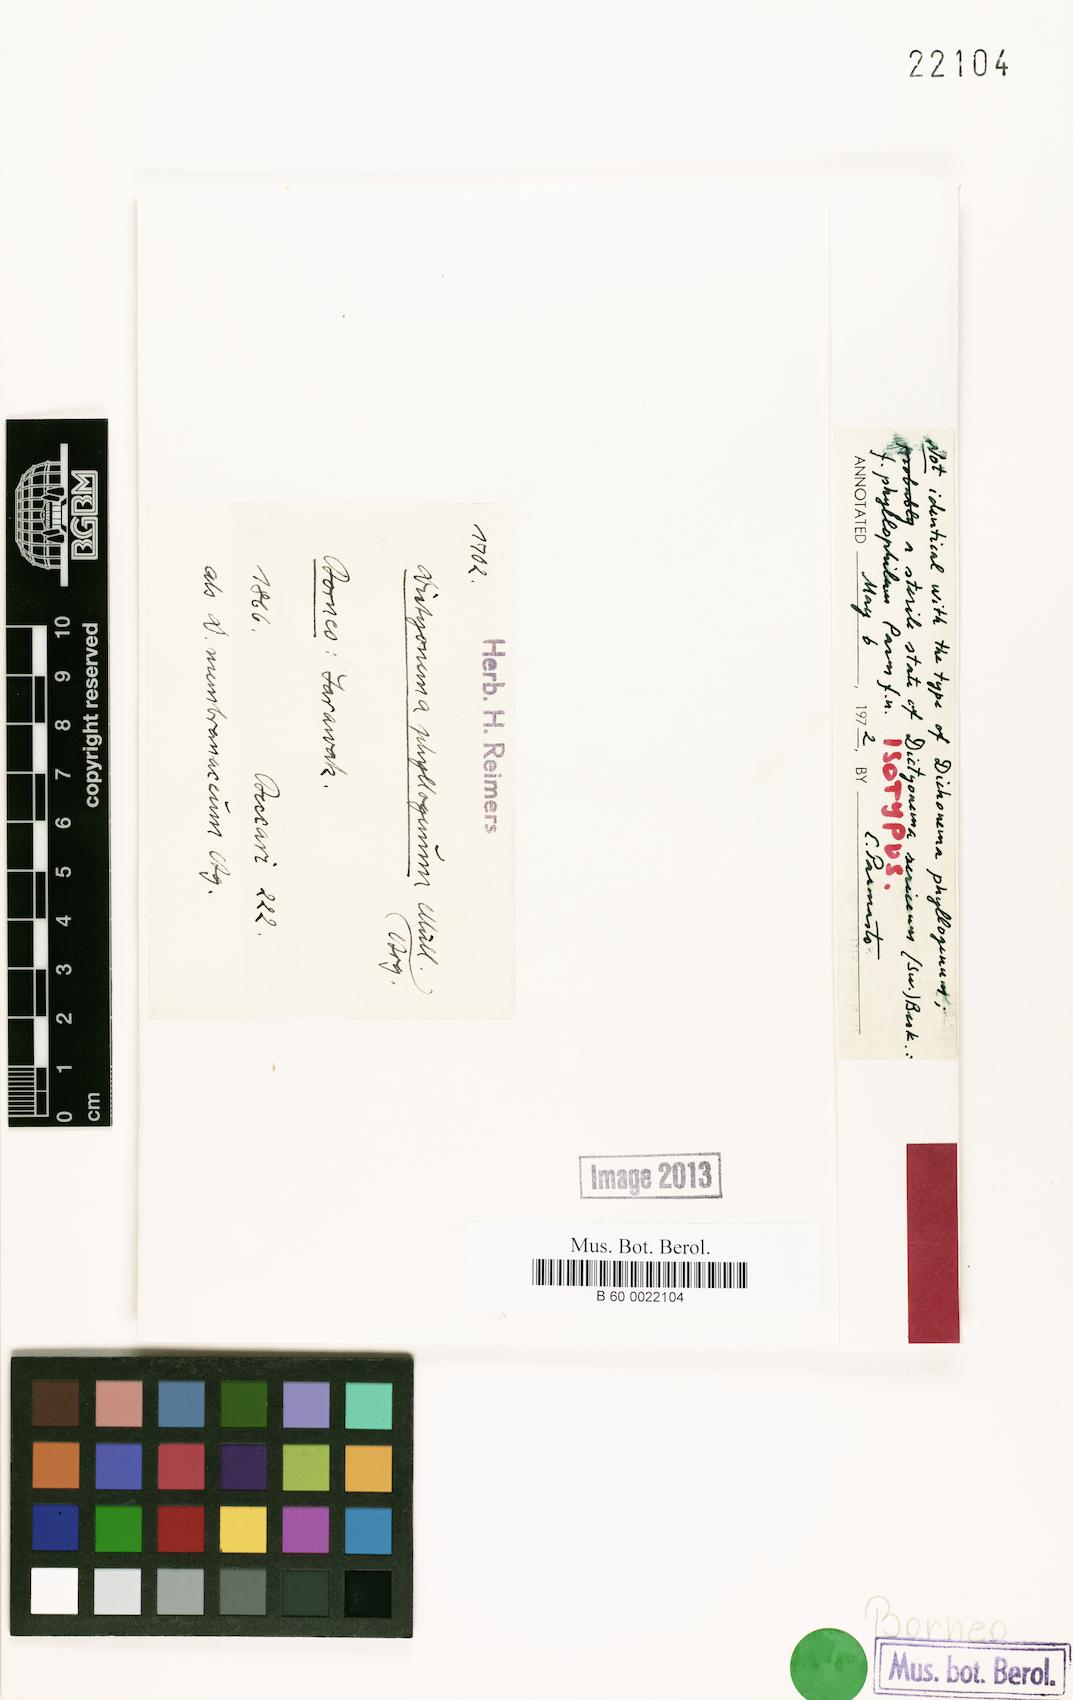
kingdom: Fungi
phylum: Basidiomycota
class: Agaricomycetes
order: Agaricales
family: Hygrophoraceae
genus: Dictyonema
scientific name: Dictyonema thelephora
